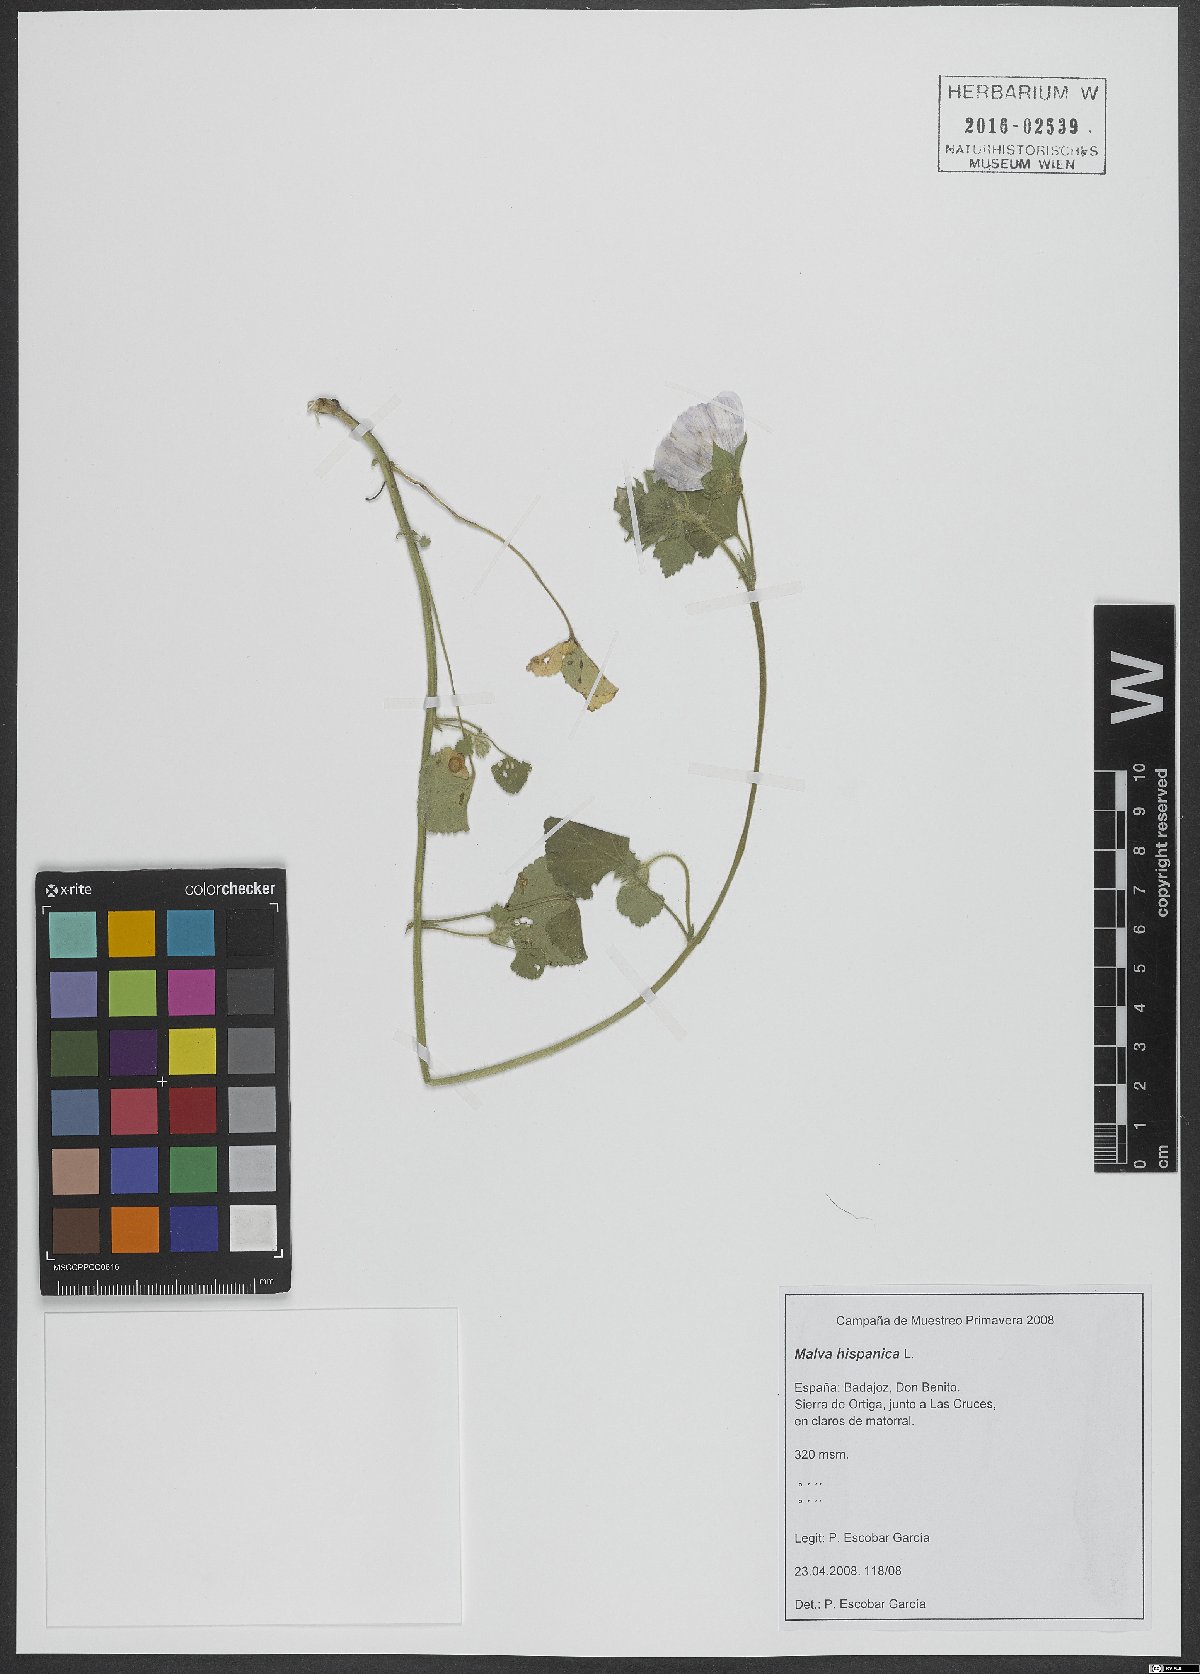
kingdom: Plantae
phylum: Tracheophyta
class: Magnoliopsida
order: Malvales
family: Malvaceae
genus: Malva
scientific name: Malva hispanica
